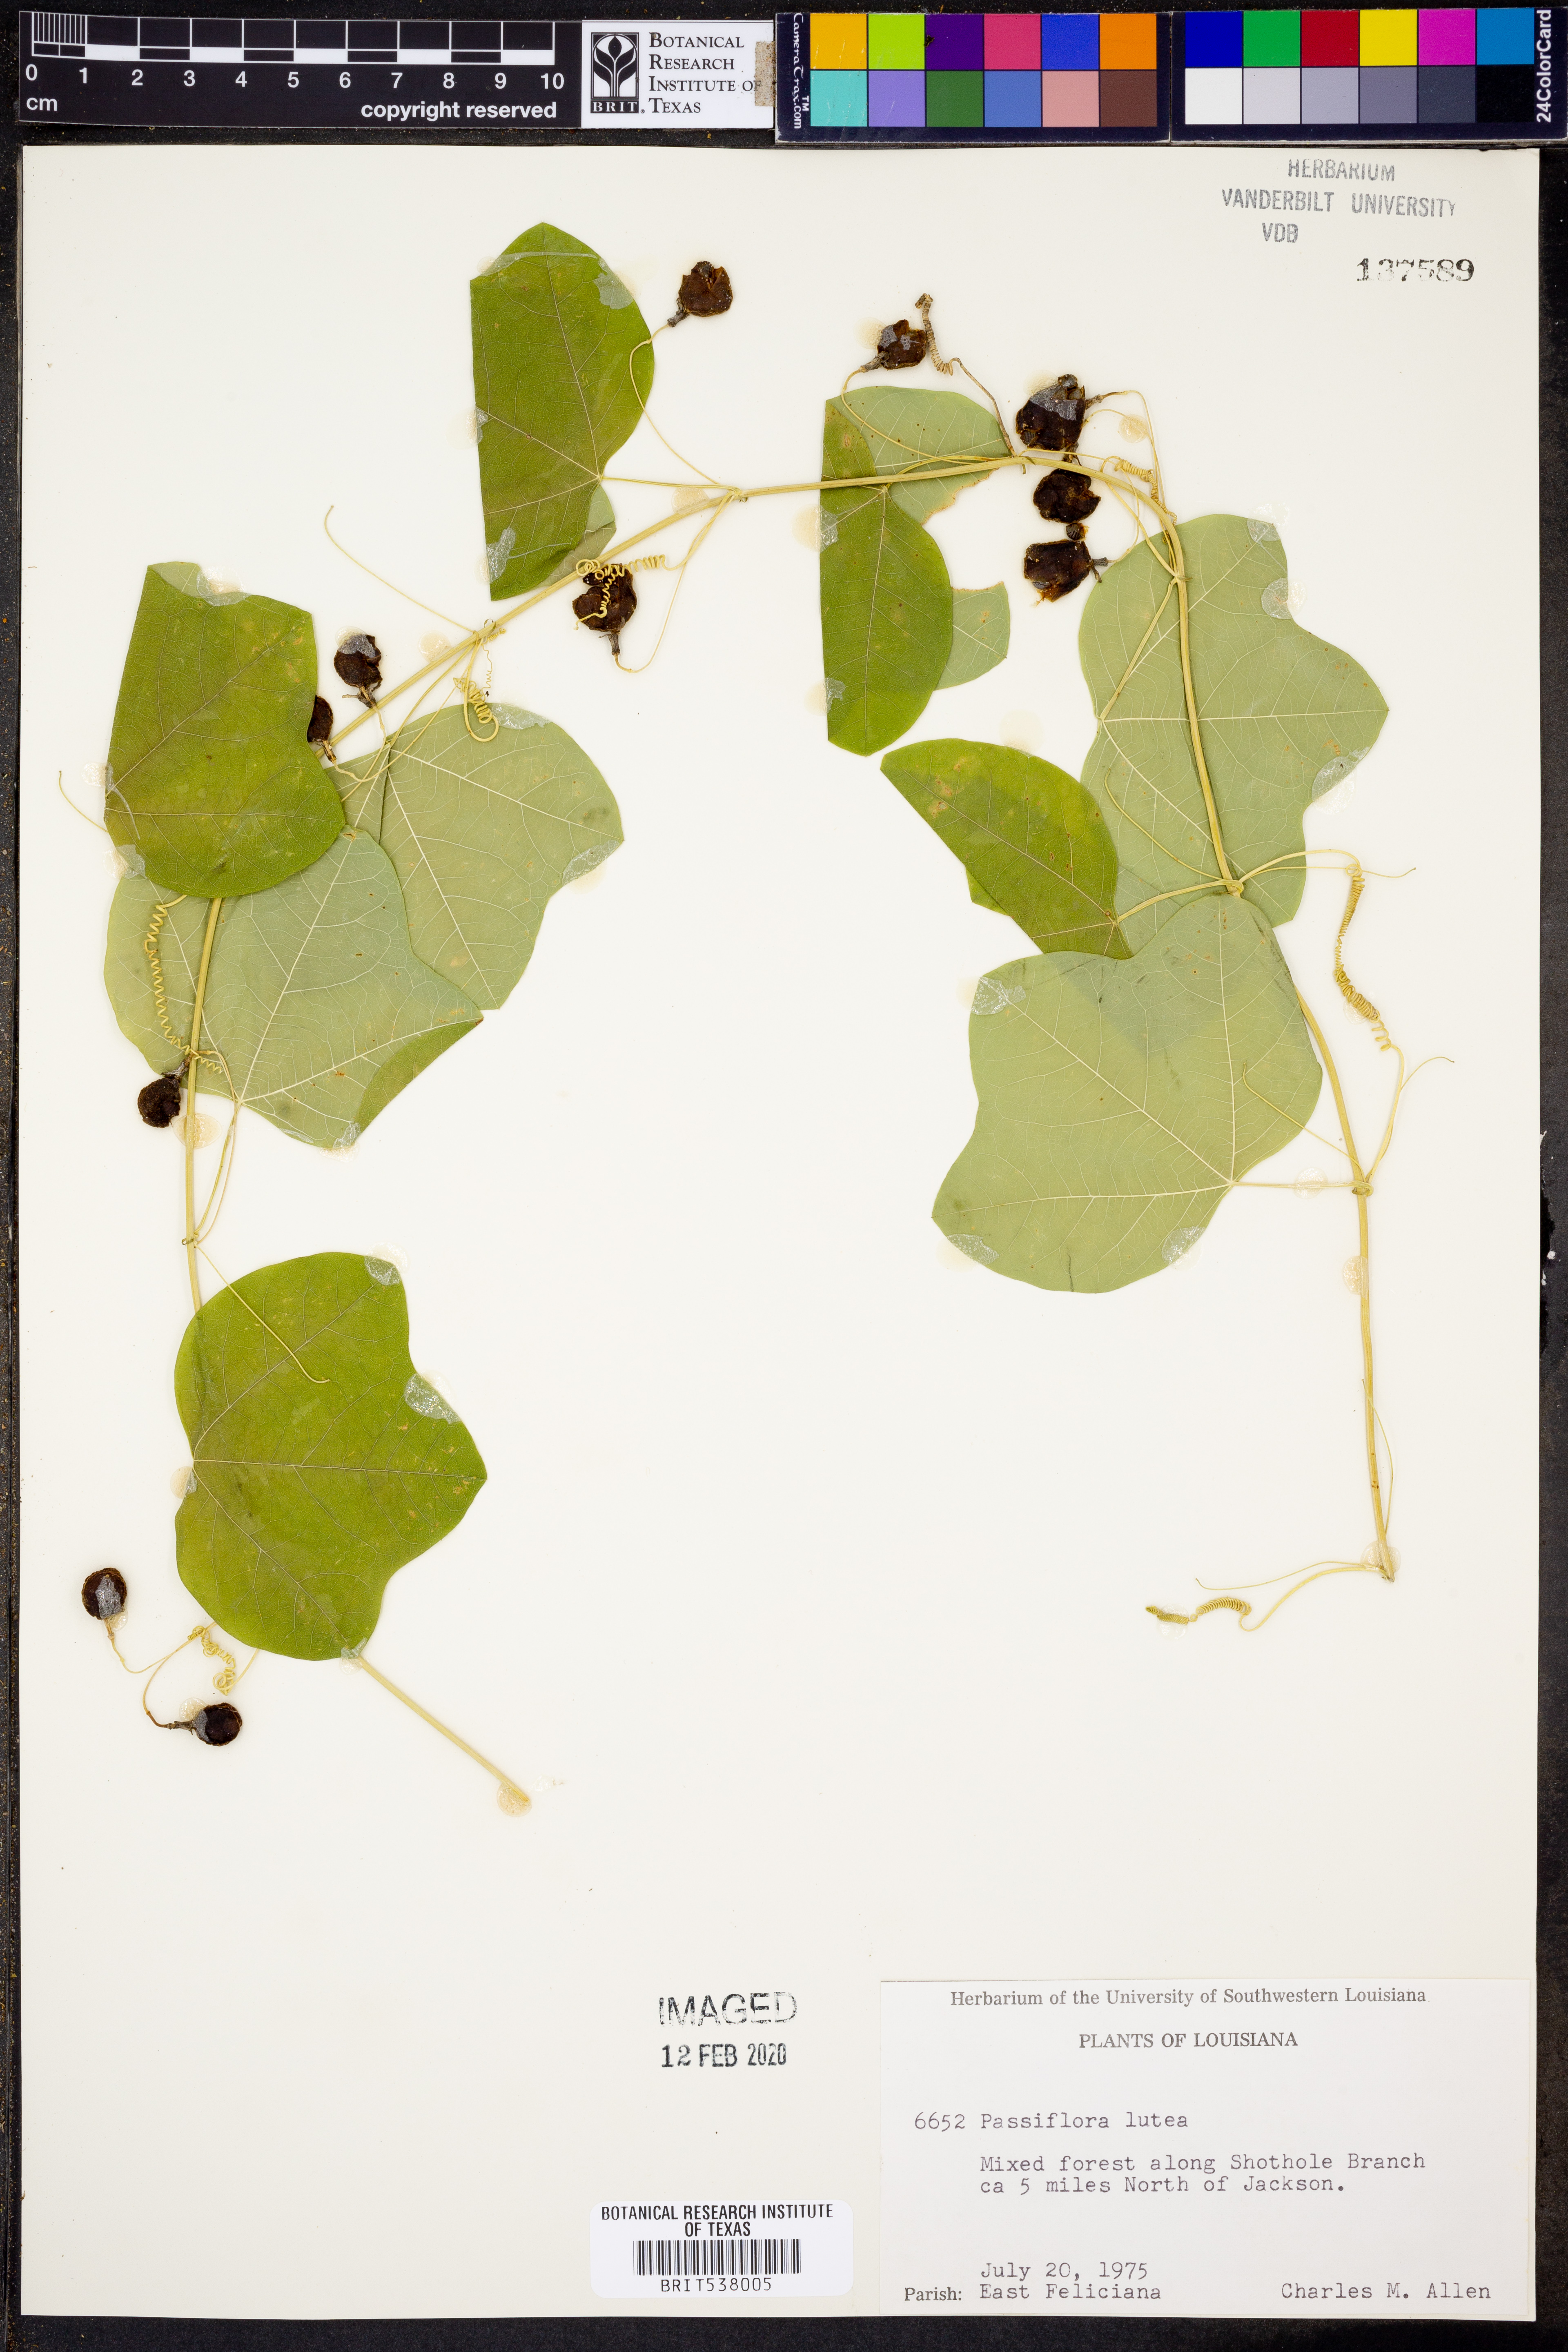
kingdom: Plantae
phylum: Tracheophyta
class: Magnoliopsida
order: Malpighiales
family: Passifloraceae
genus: Passiflora
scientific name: Passiflora lutea
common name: Yellow passionflower
